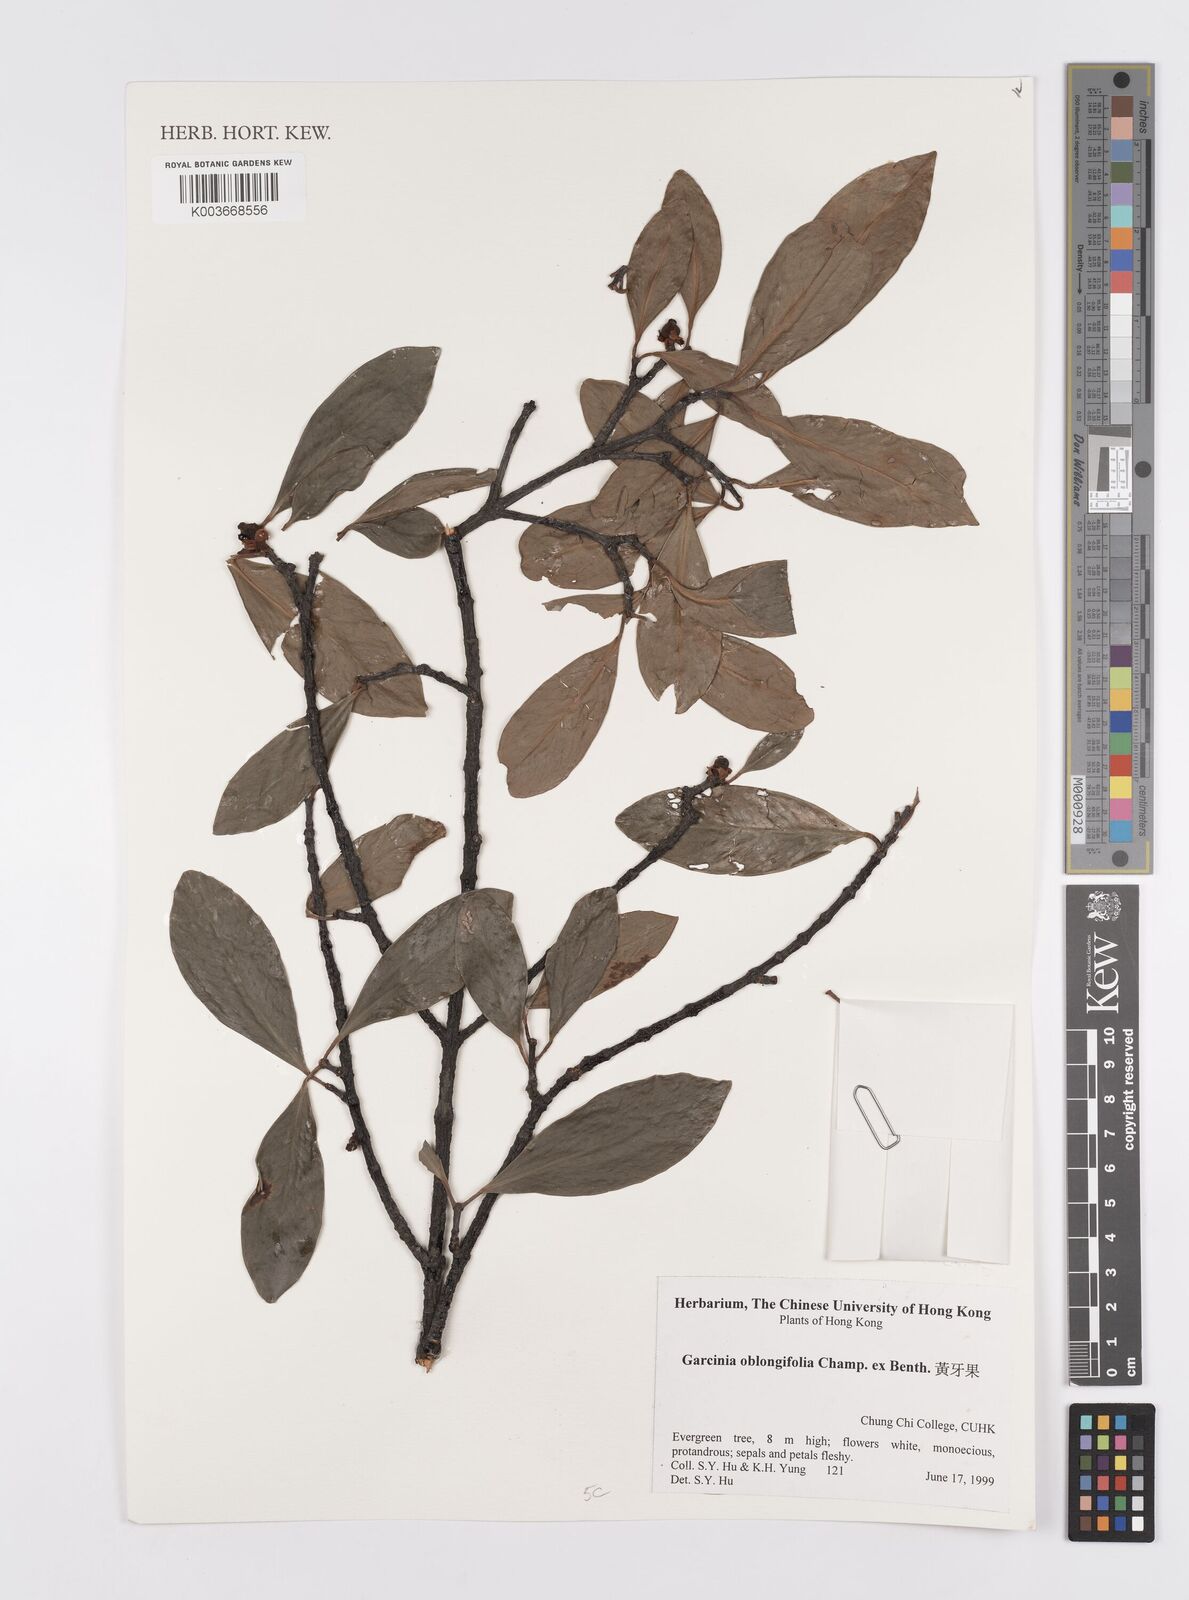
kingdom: Plantae
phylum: Tracheophyta
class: Magnoliopsida
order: Malpighiales
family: Clusiaceae
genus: Garcinia
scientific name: Garcinia oblongifolia
